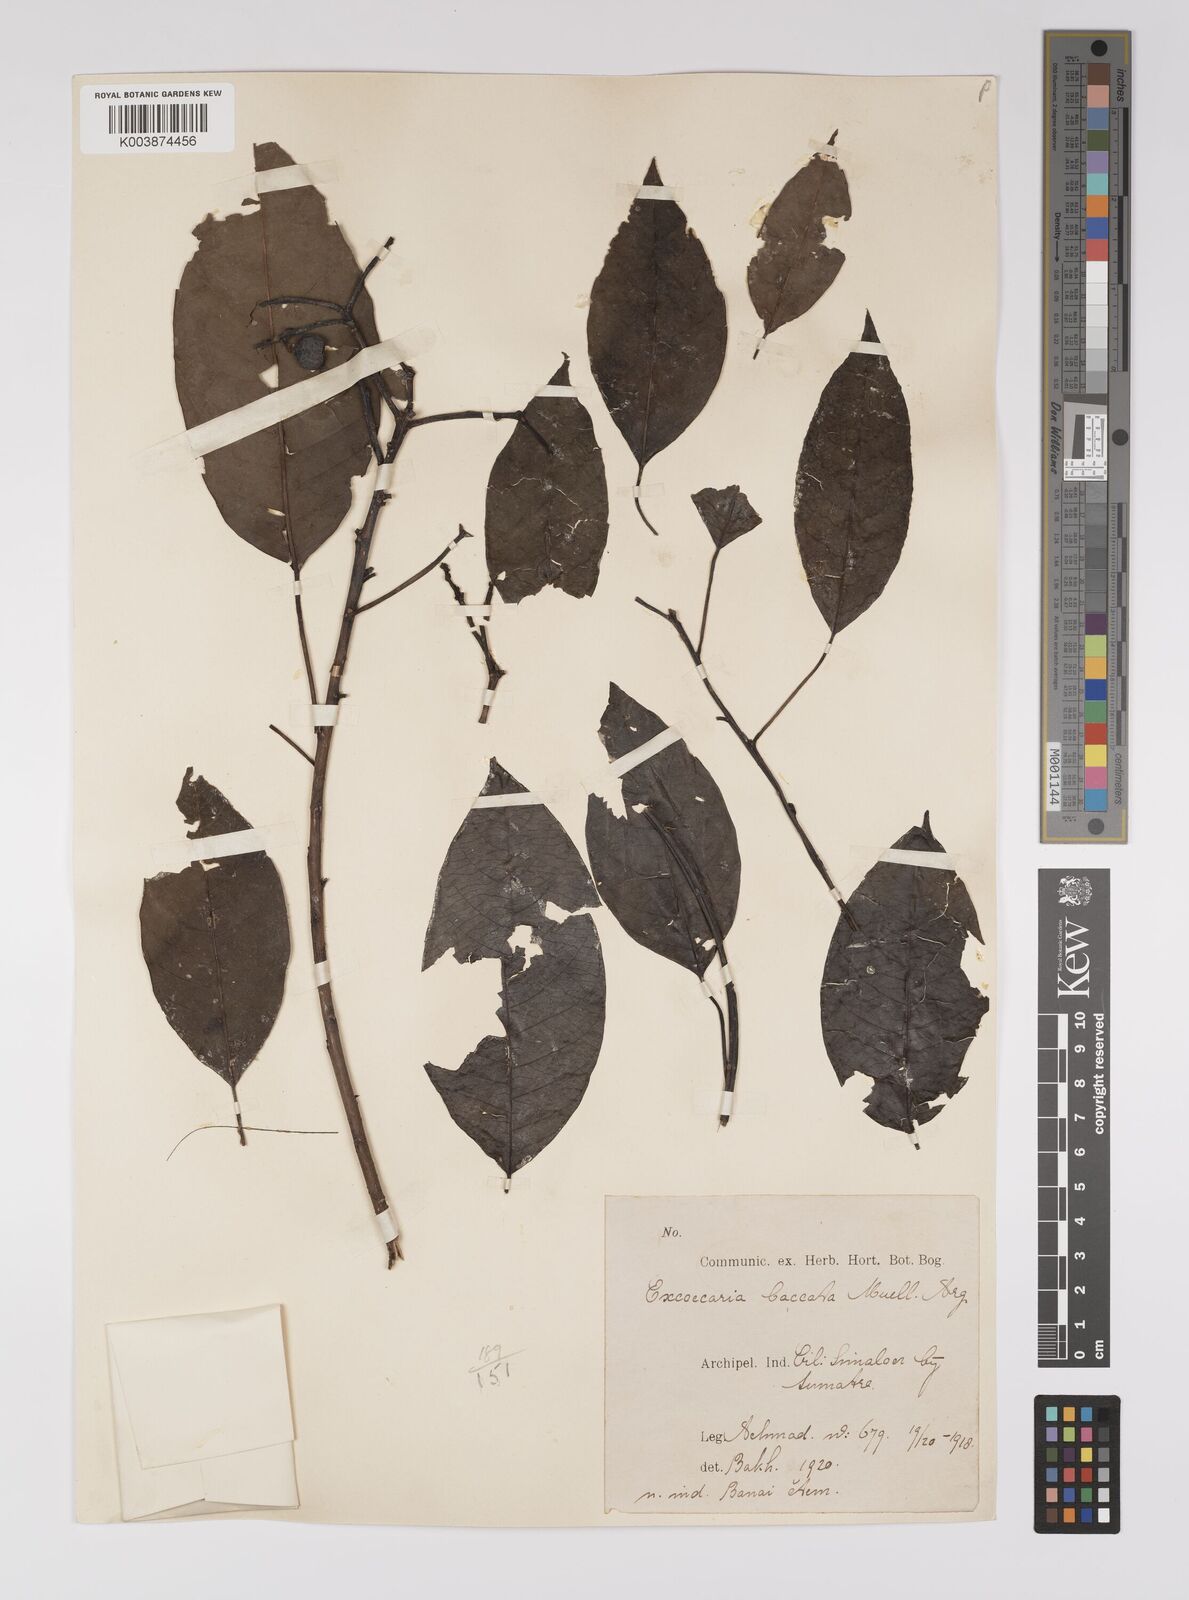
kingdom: Plantae
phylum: Tracheophyta
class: Magnoliopsida
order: Malpighiales
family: Euphorbiaceae
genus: Balakata
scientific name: Balakata baccata
